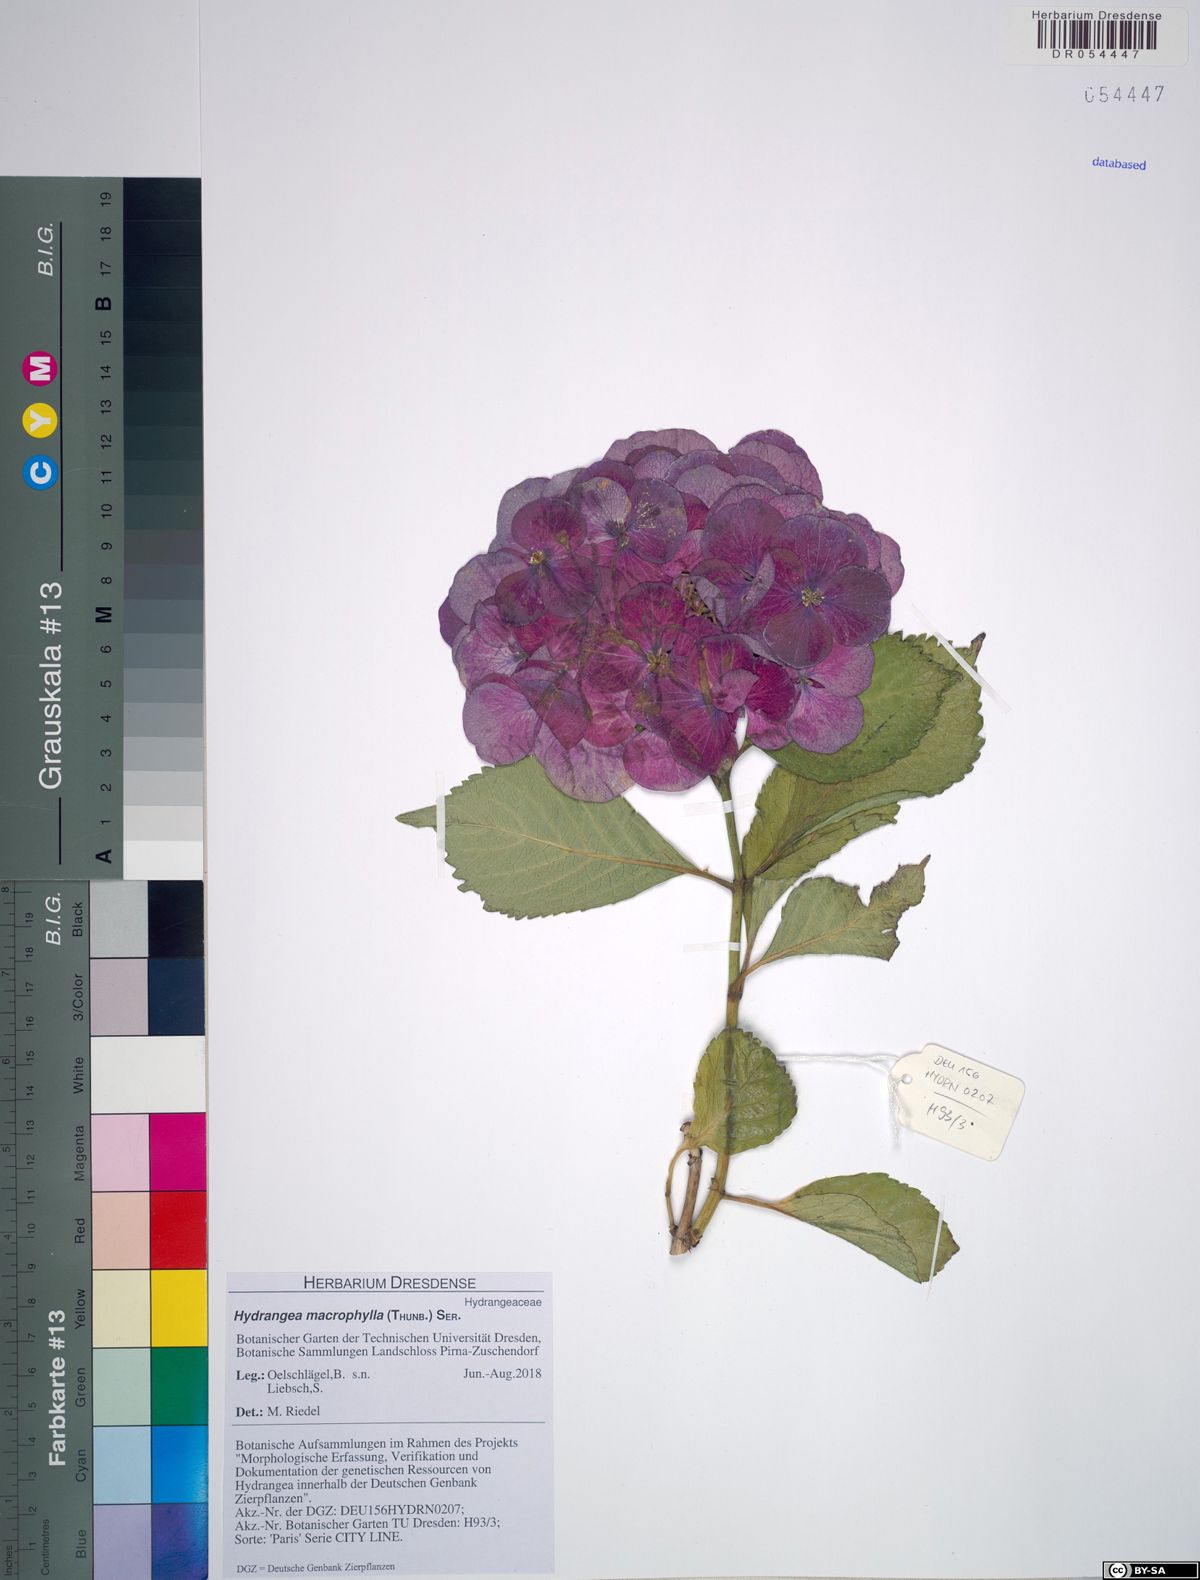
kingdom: Plantae
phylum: Tracheophyta
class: Magnoliopsida
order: Cornales
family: Hydrangeaceae
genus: Hydrangea
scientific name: Hydrangea macrophylla
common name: Hydrangea
